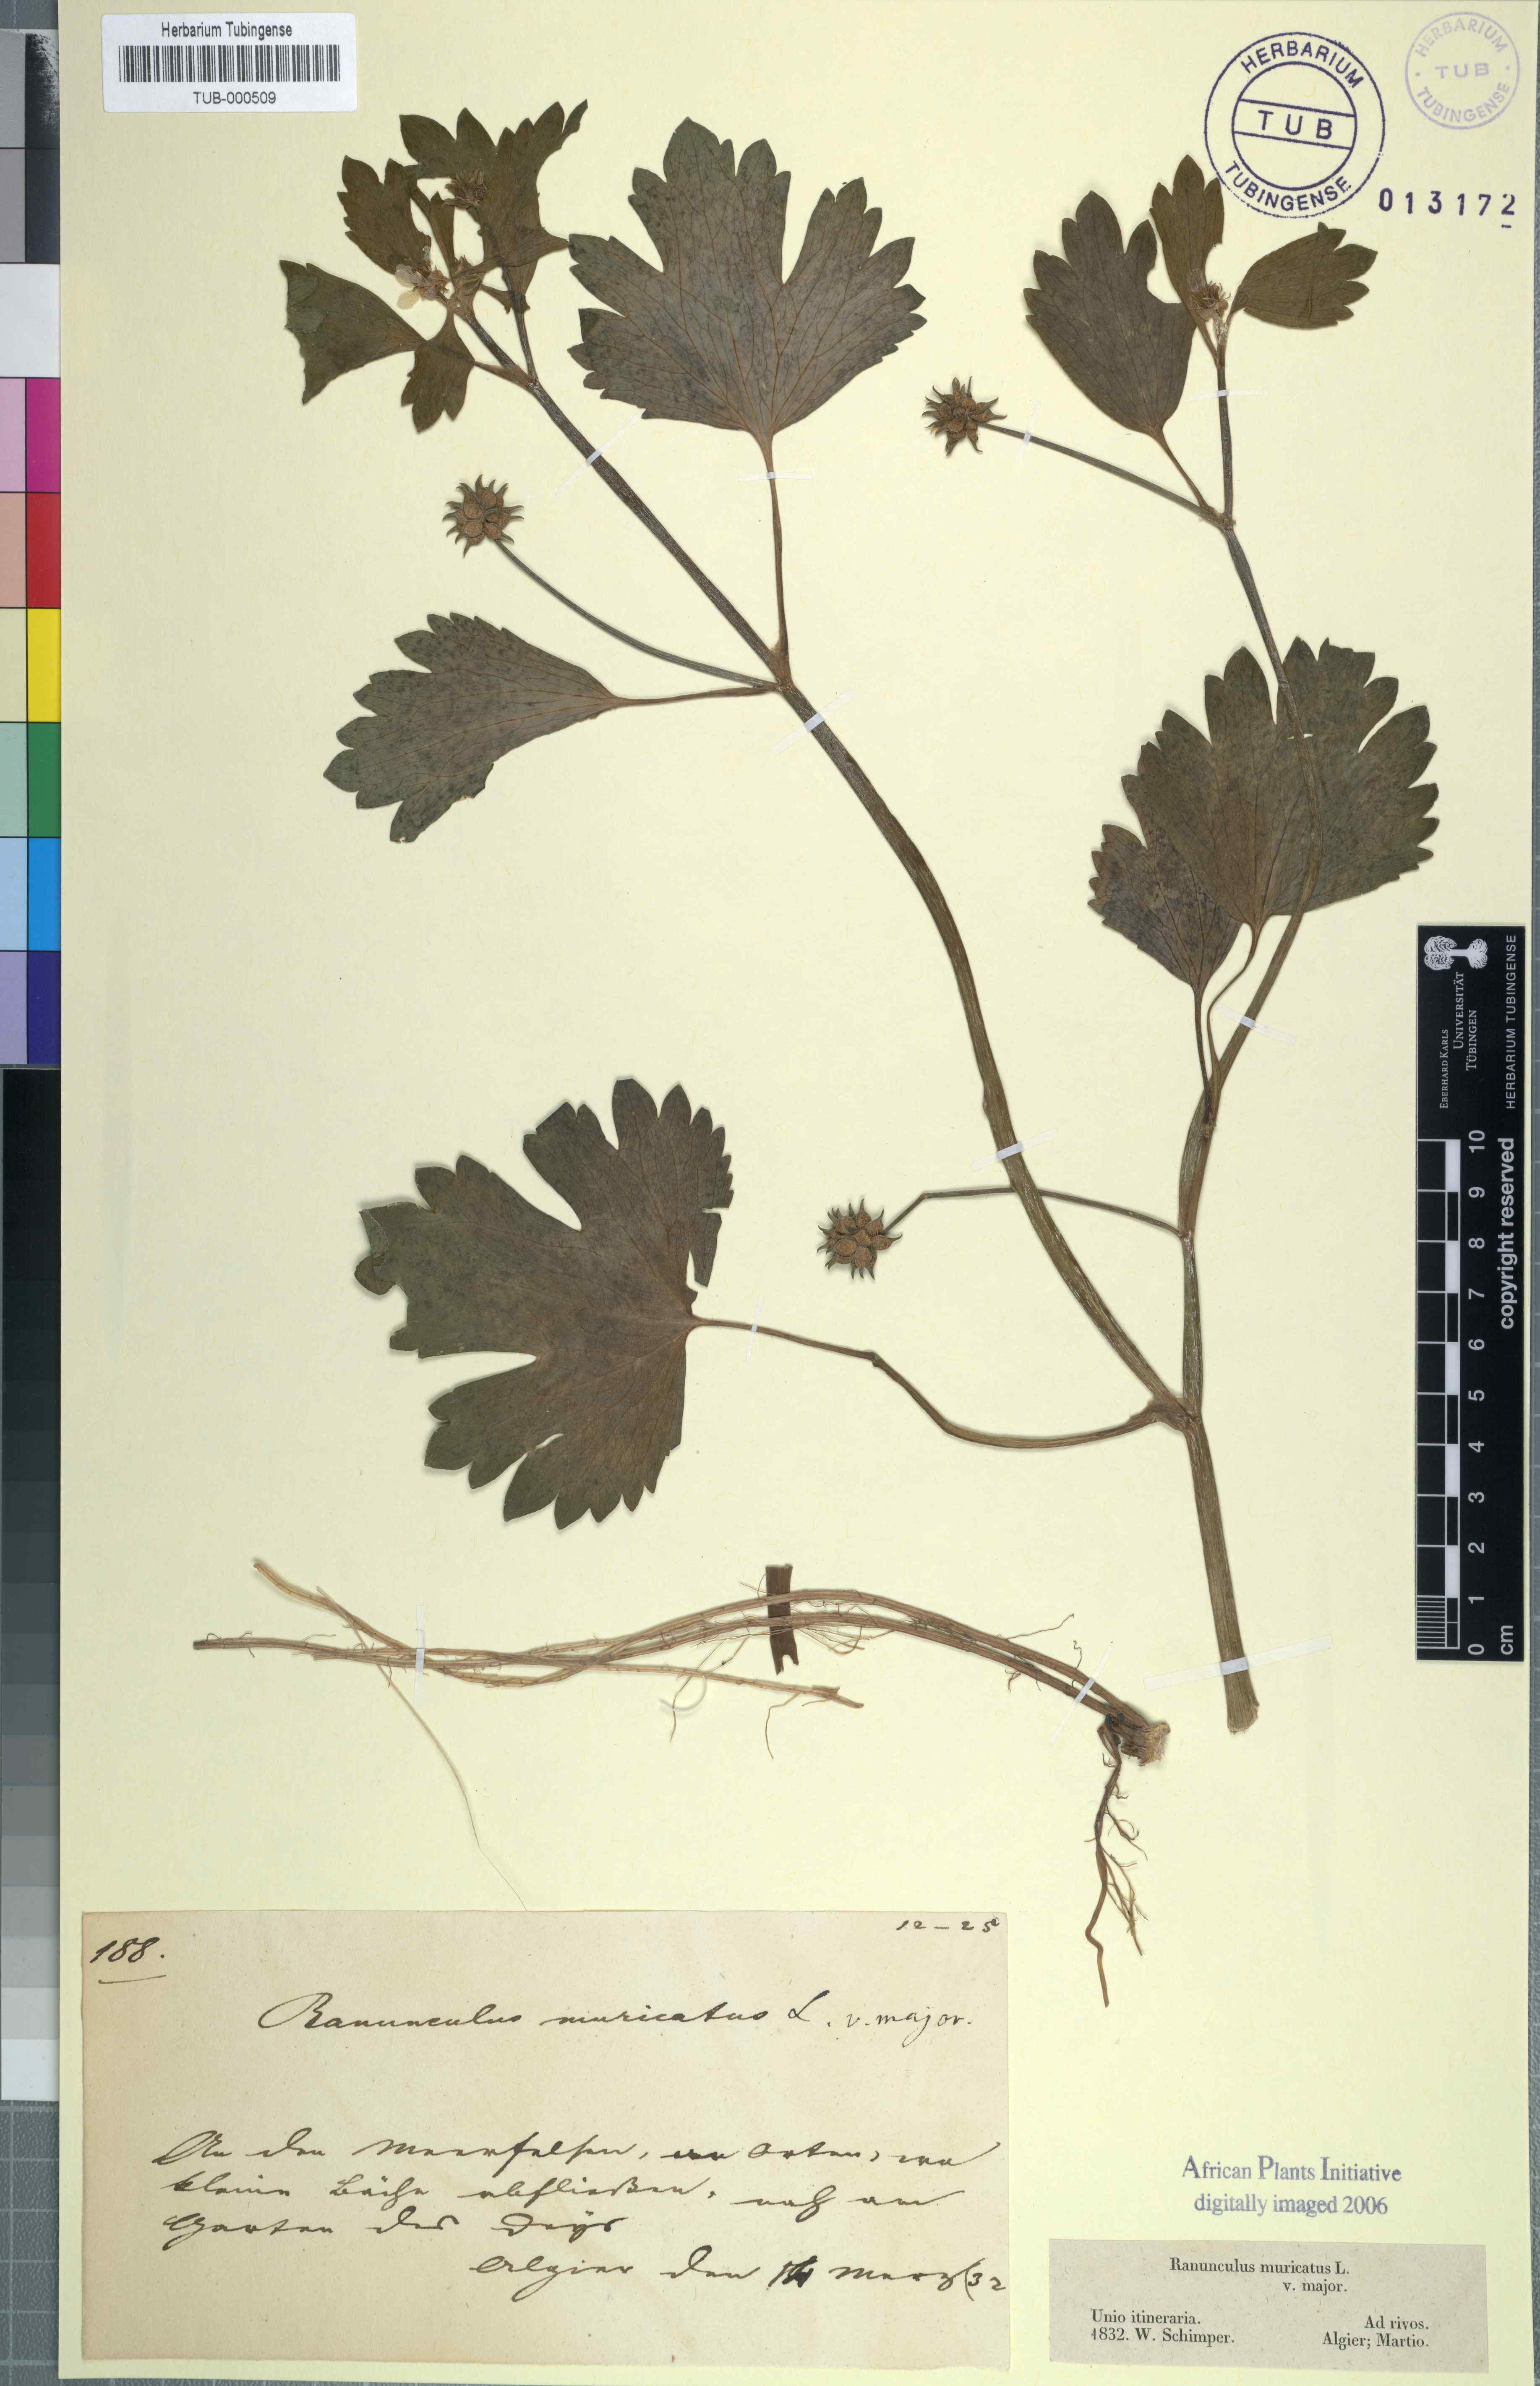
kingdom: Plantae
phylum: Tracheophyta
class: Magnoliopsida
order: Ranunculales
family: Ranunculaceae
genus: Ranunculus
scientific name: Ranunculus muricatus
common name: Rough-fruited buttercup
